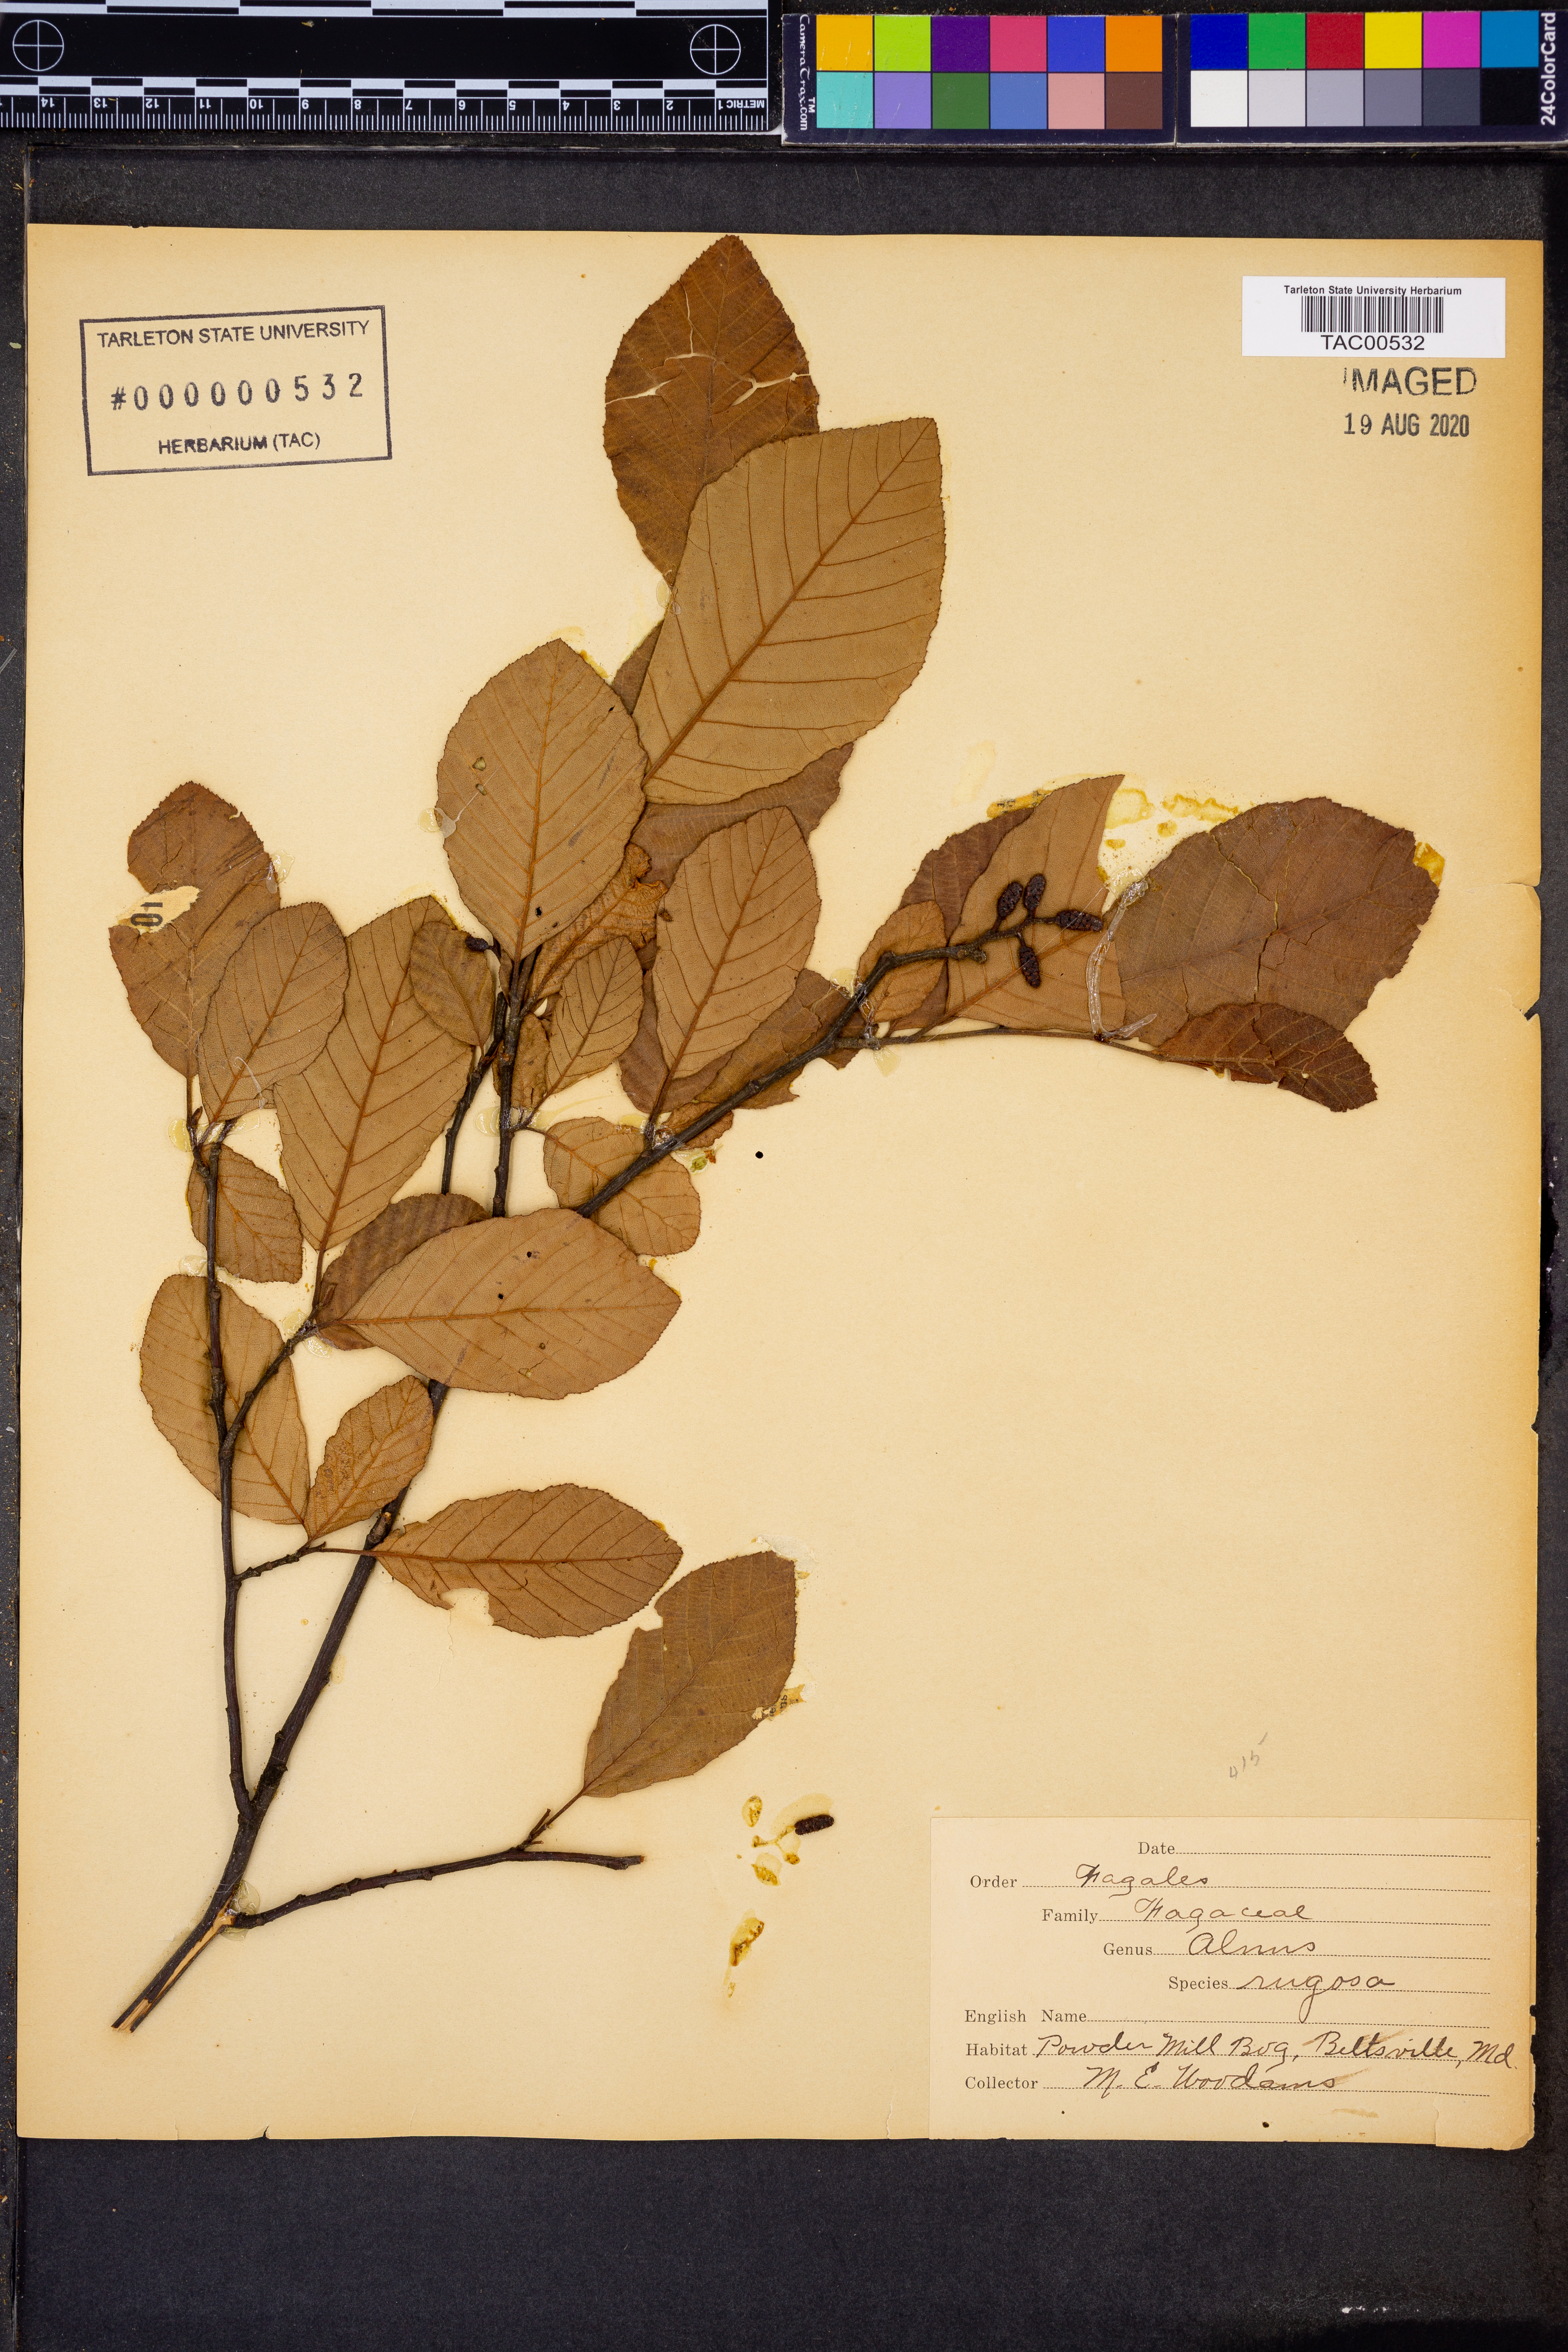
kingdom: Plantae
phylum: Tracheophyta
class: Magnoliopsida
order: Fagales
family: Betulaceae
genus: Alnus
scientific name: Alnus incana
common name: Grey alder
